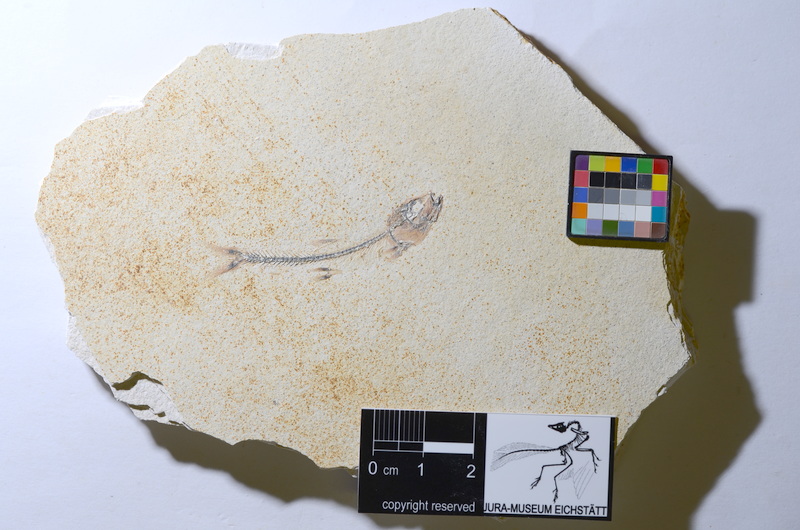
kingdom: Animalia
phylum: Chordata
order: Salmoniformes
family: Orthogonikleithridae
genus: Orthogonikleithrus
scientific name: Orthogonikleithrus hoelli
